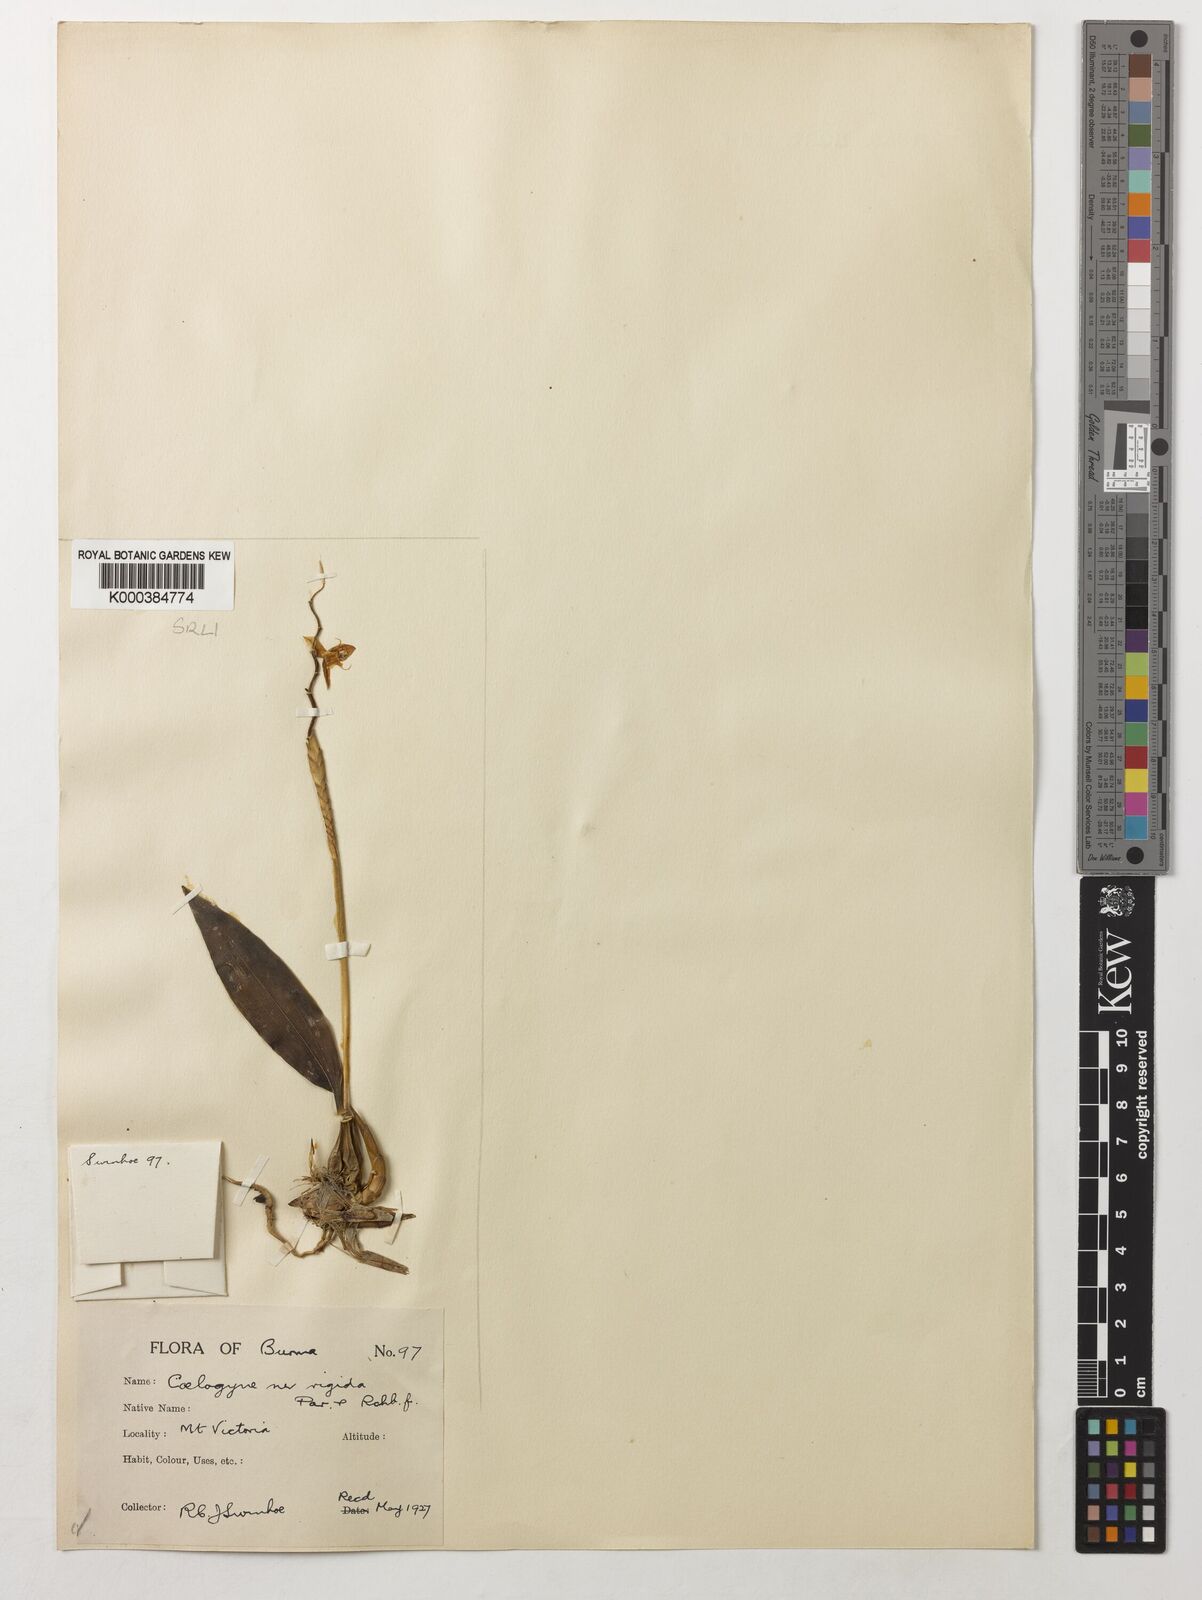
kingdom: Plantae
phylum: Tracheophyta
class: Liliopsida
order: Asparagales
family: Orchidaceae
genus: Coelogyne
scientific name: Coelogyne rigida
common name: Rigid coelogyne
